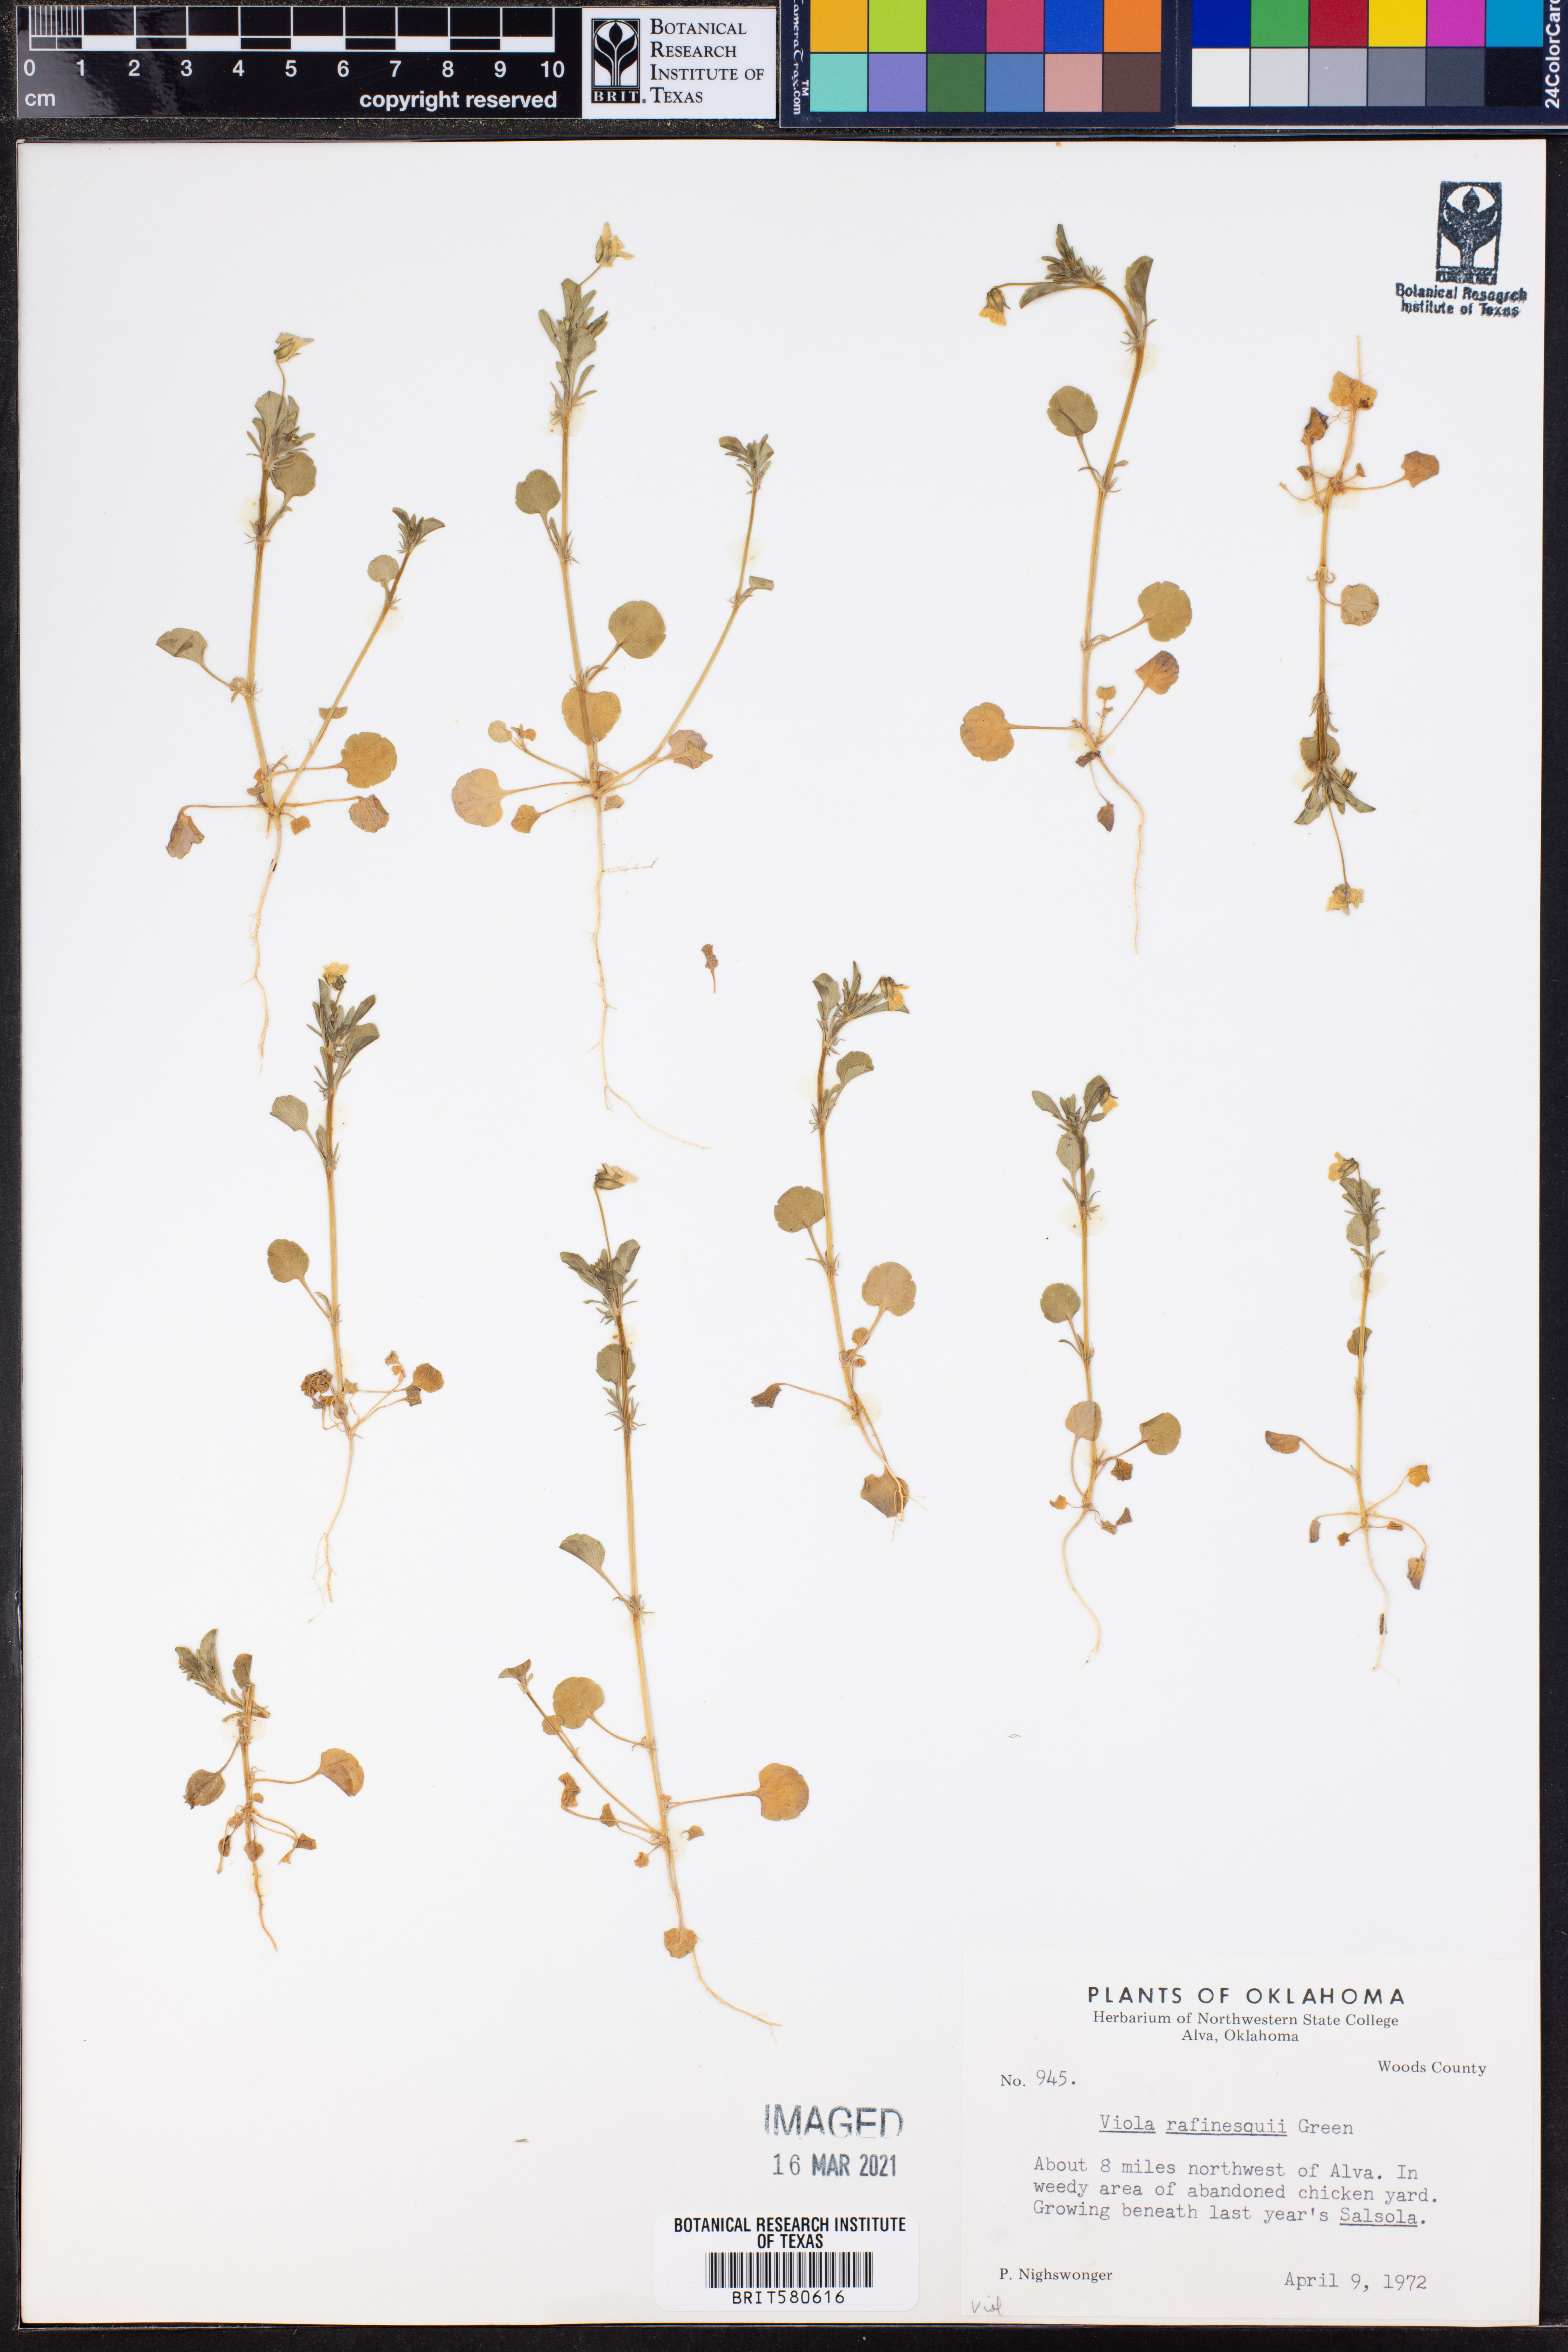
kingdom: Plantae
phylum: Tracheophyta
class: Magnoliopsida
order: Malpighiales
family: Violaceae
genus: Viola
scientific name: Viola rafinesquei
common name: American field pansy
